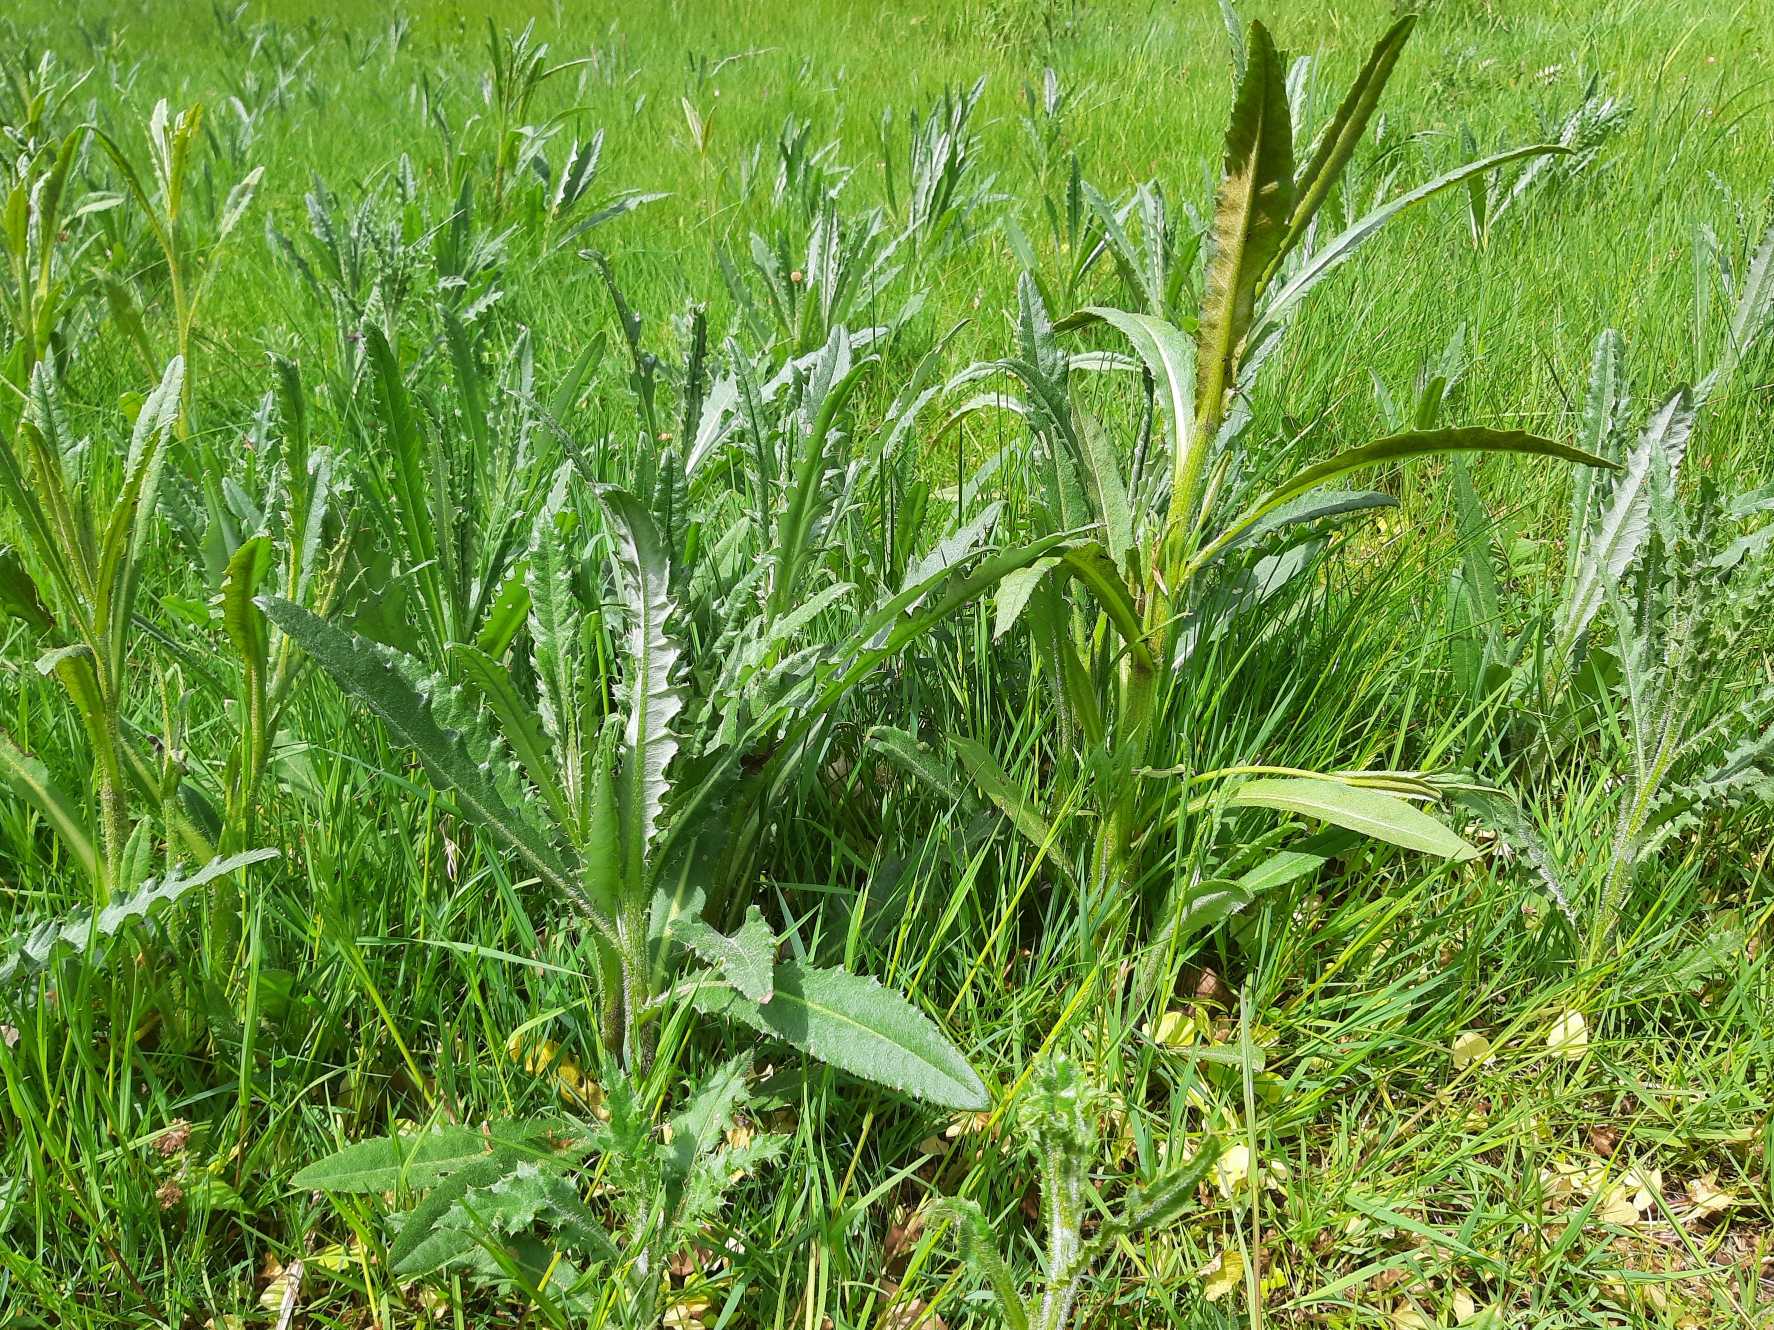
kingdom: Fungi
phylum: Basidiomycota
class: Pucciniomycetes
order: Pucciniales
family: Pucciniaceae
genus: Puccinia
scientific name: Puccinia suaveolens
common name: Tidsel-tvecellerust
